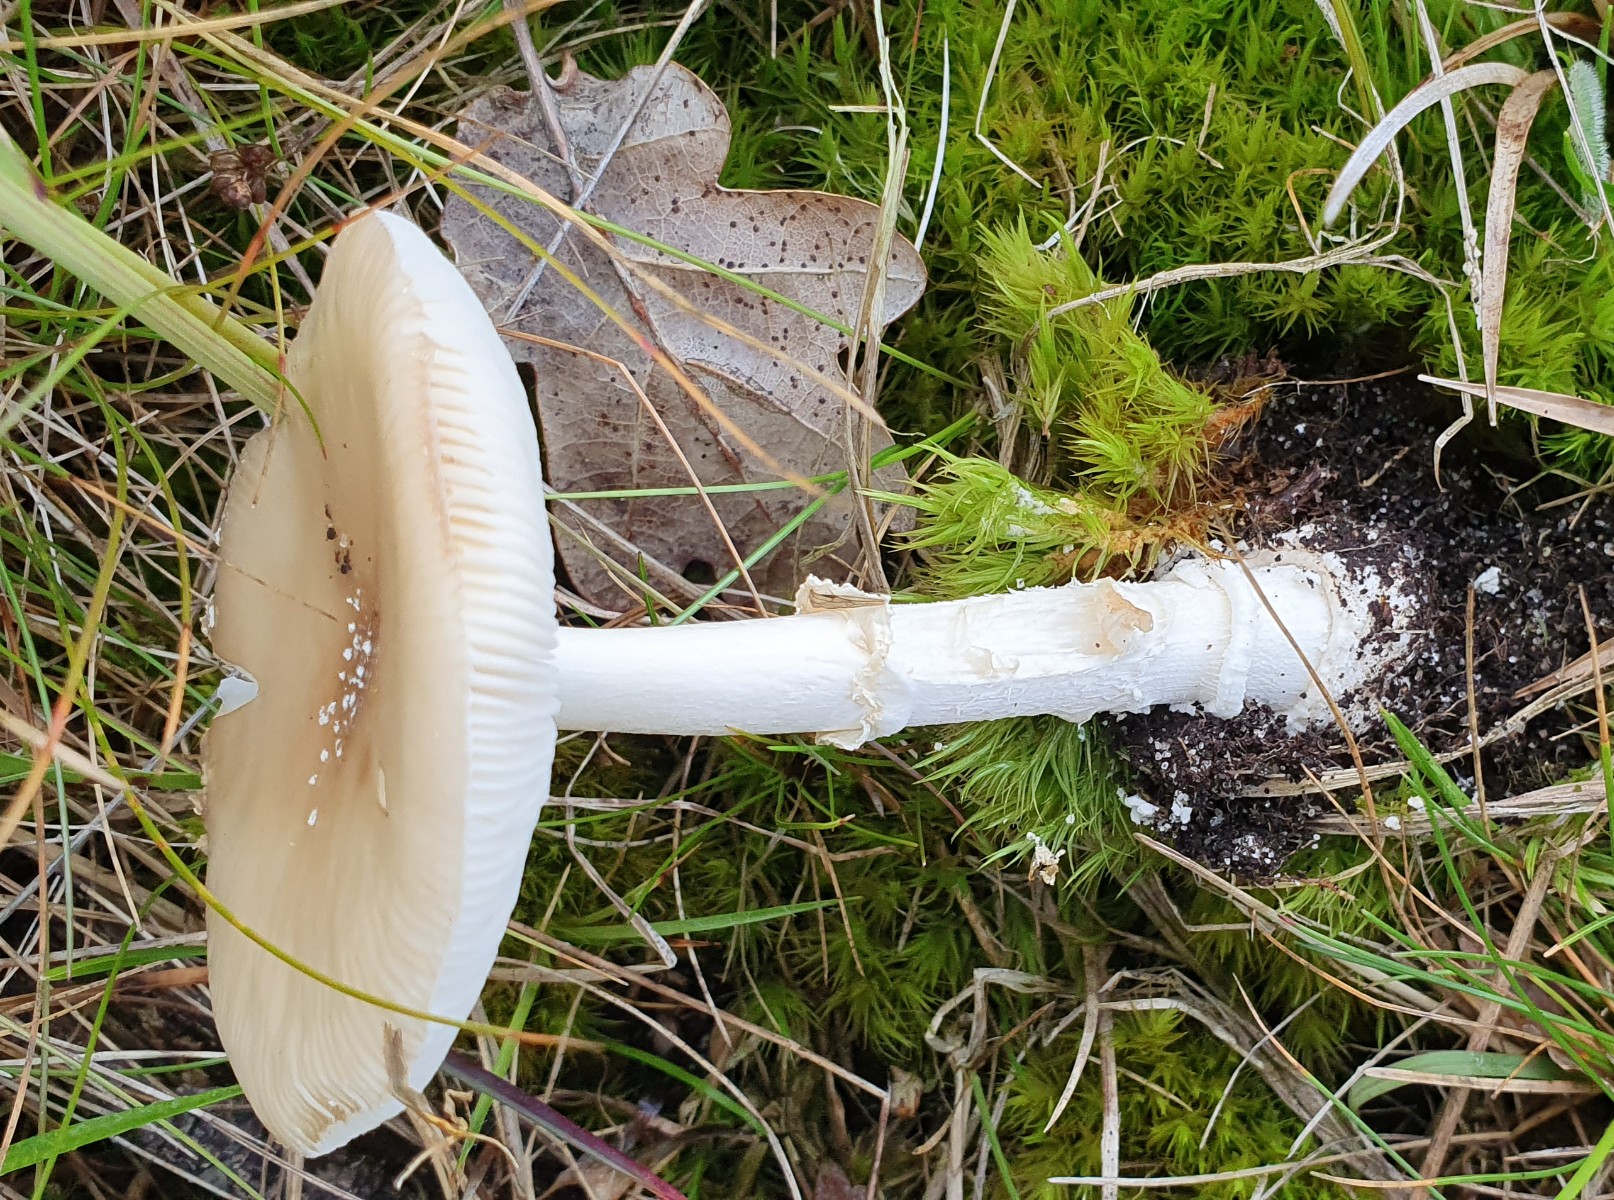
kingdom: Fungi
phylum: Basidiomycota
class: Agaricomycetes
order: Agaricales
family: Amanitaceae
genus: Amanita
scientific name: Amanita pantherina
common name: panter-fluesvamp
